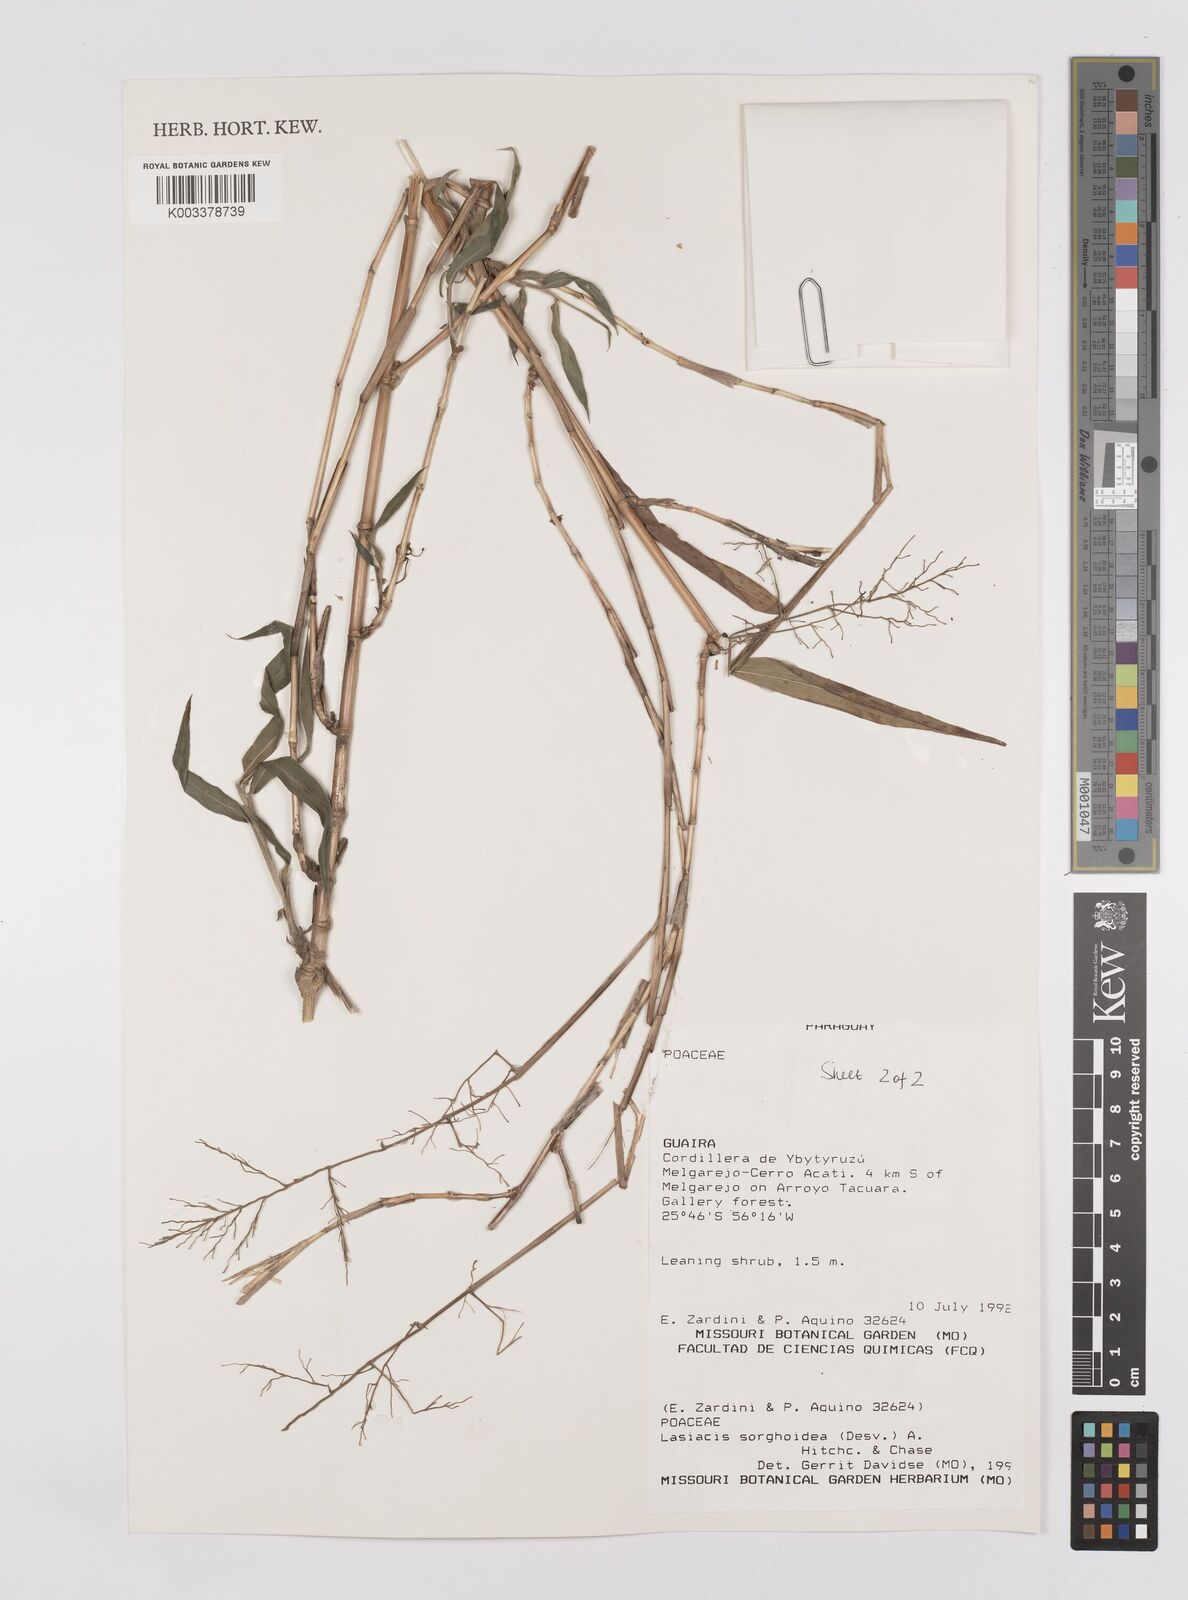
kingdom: Plantae
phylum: Tracheophyta
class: Liliopsida
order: Poales
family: Poaceae
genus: Lasiacis
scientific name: Lasiacis maculata
